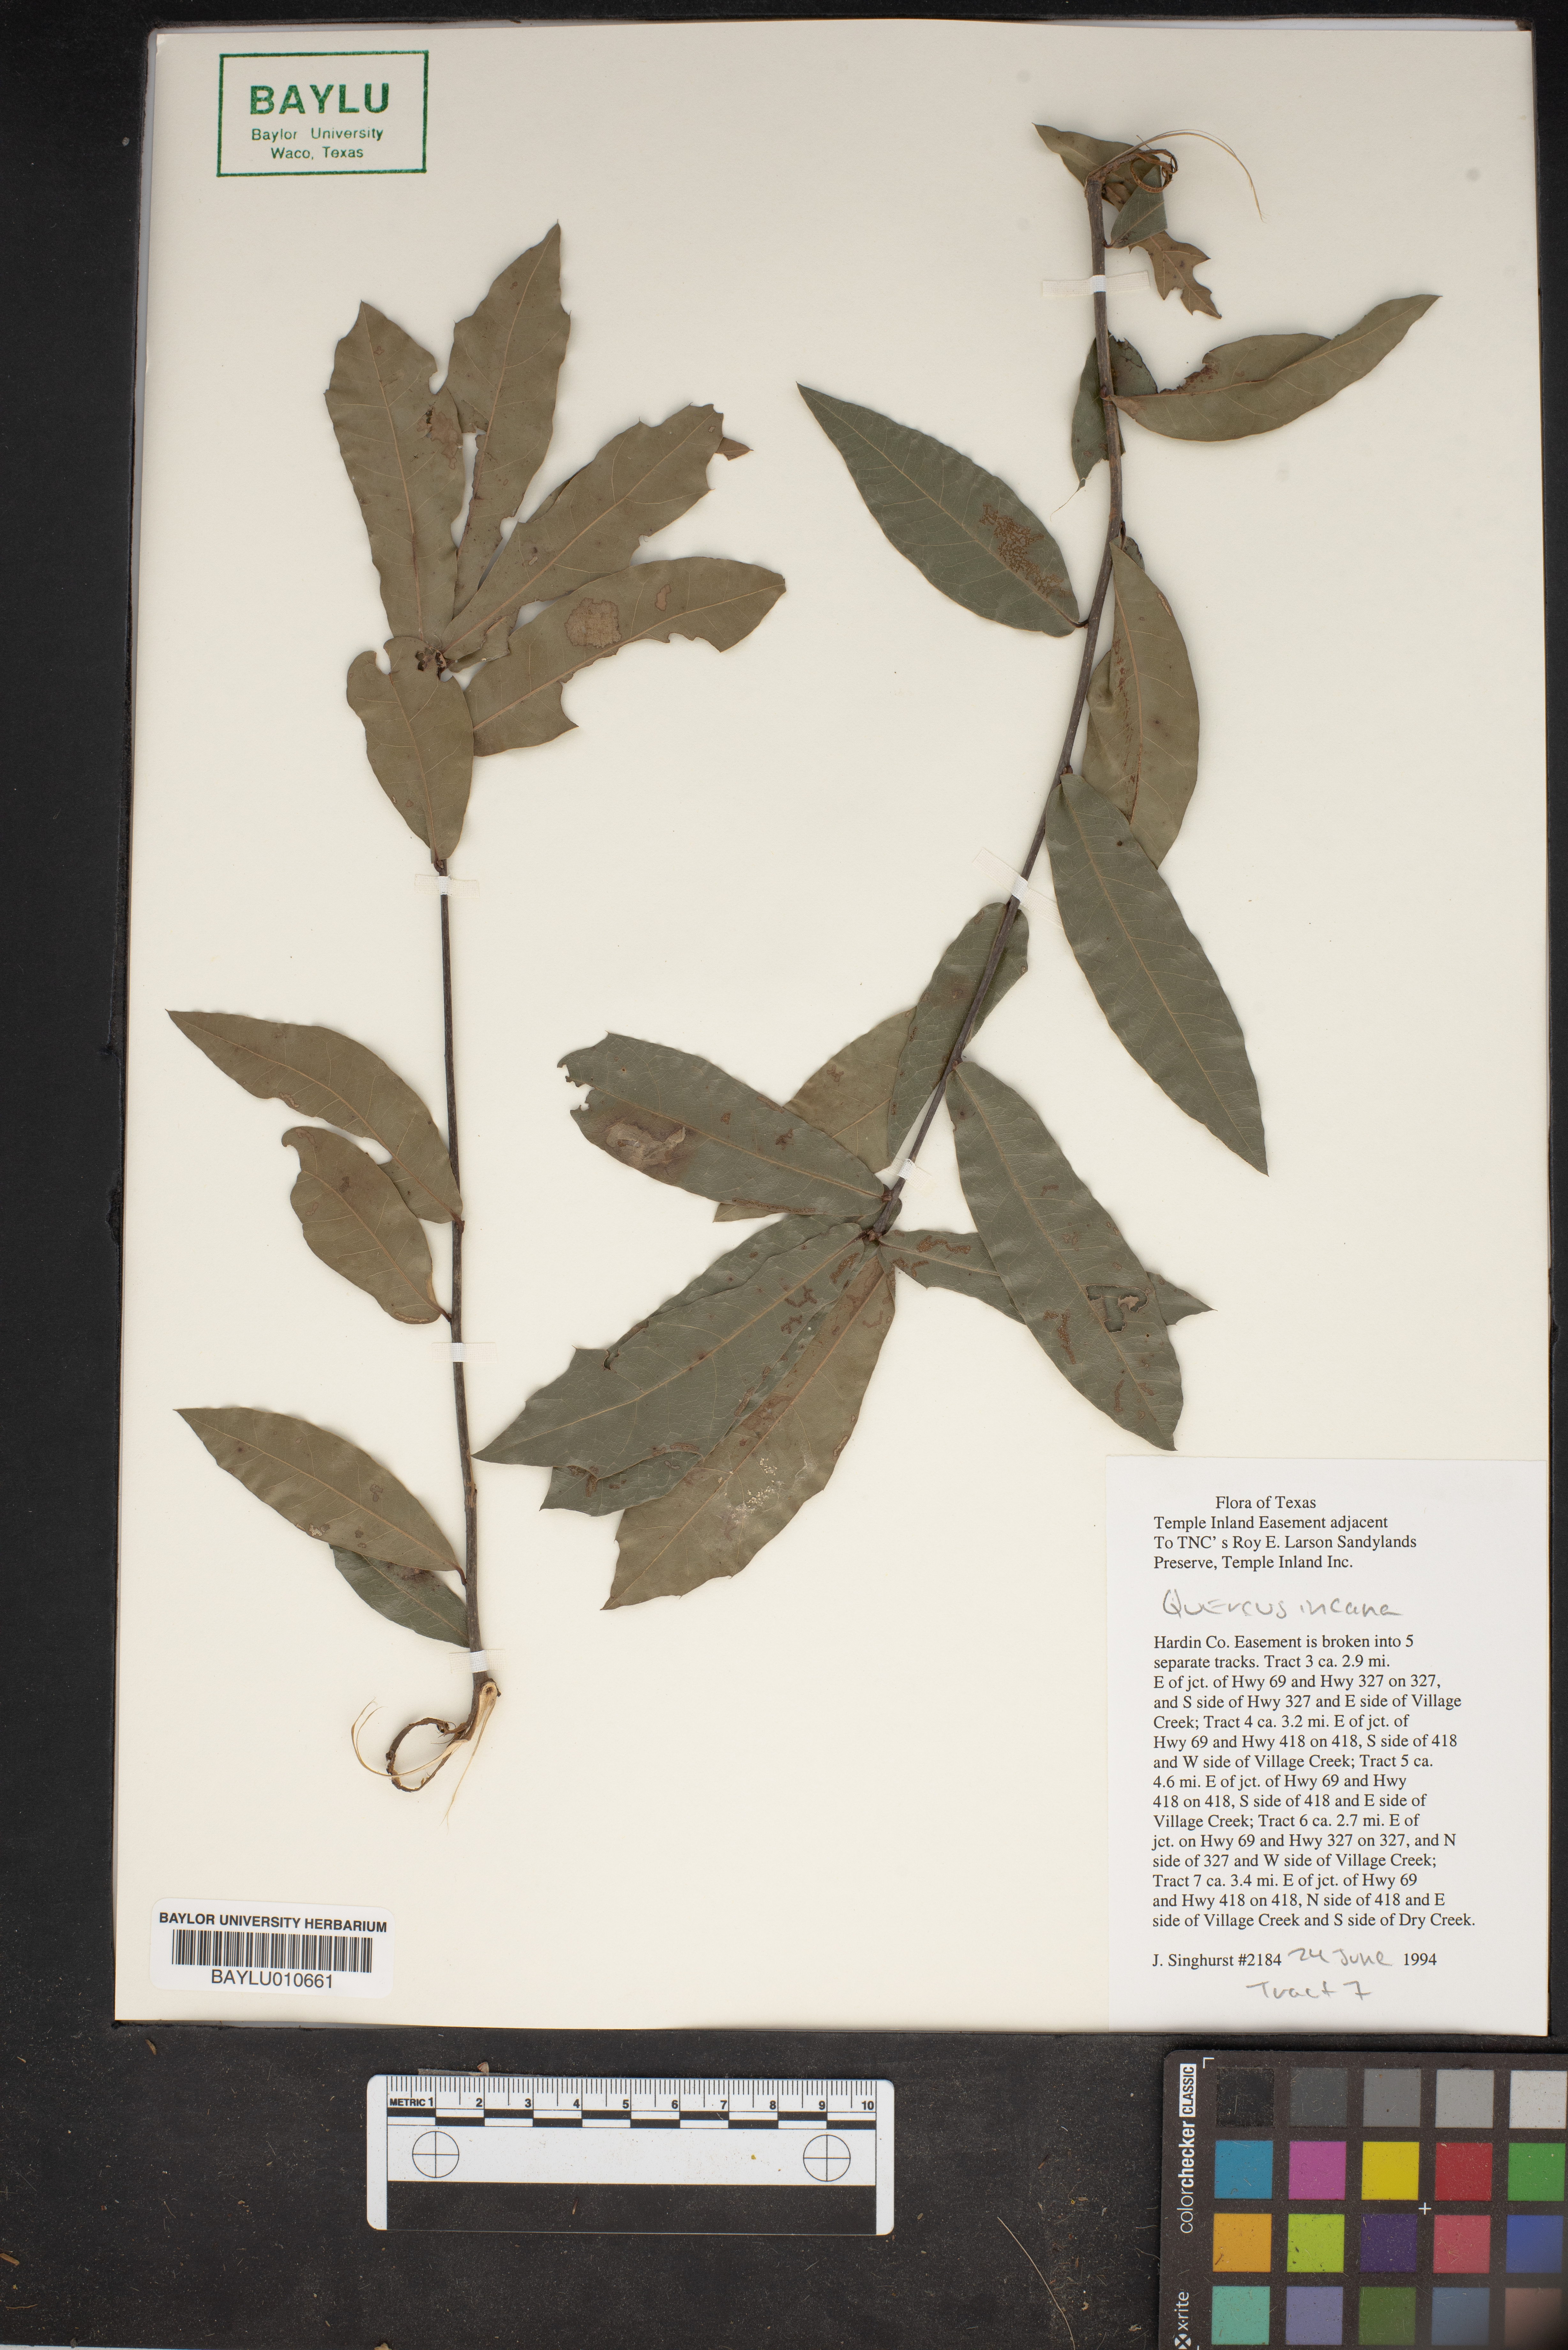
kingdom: Plantae
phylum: Tracheophyta
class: Magnoliopsida
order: Fagales
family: Fagaceae
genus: Quercus
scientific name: Quercus incana
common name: Bluejack oak
